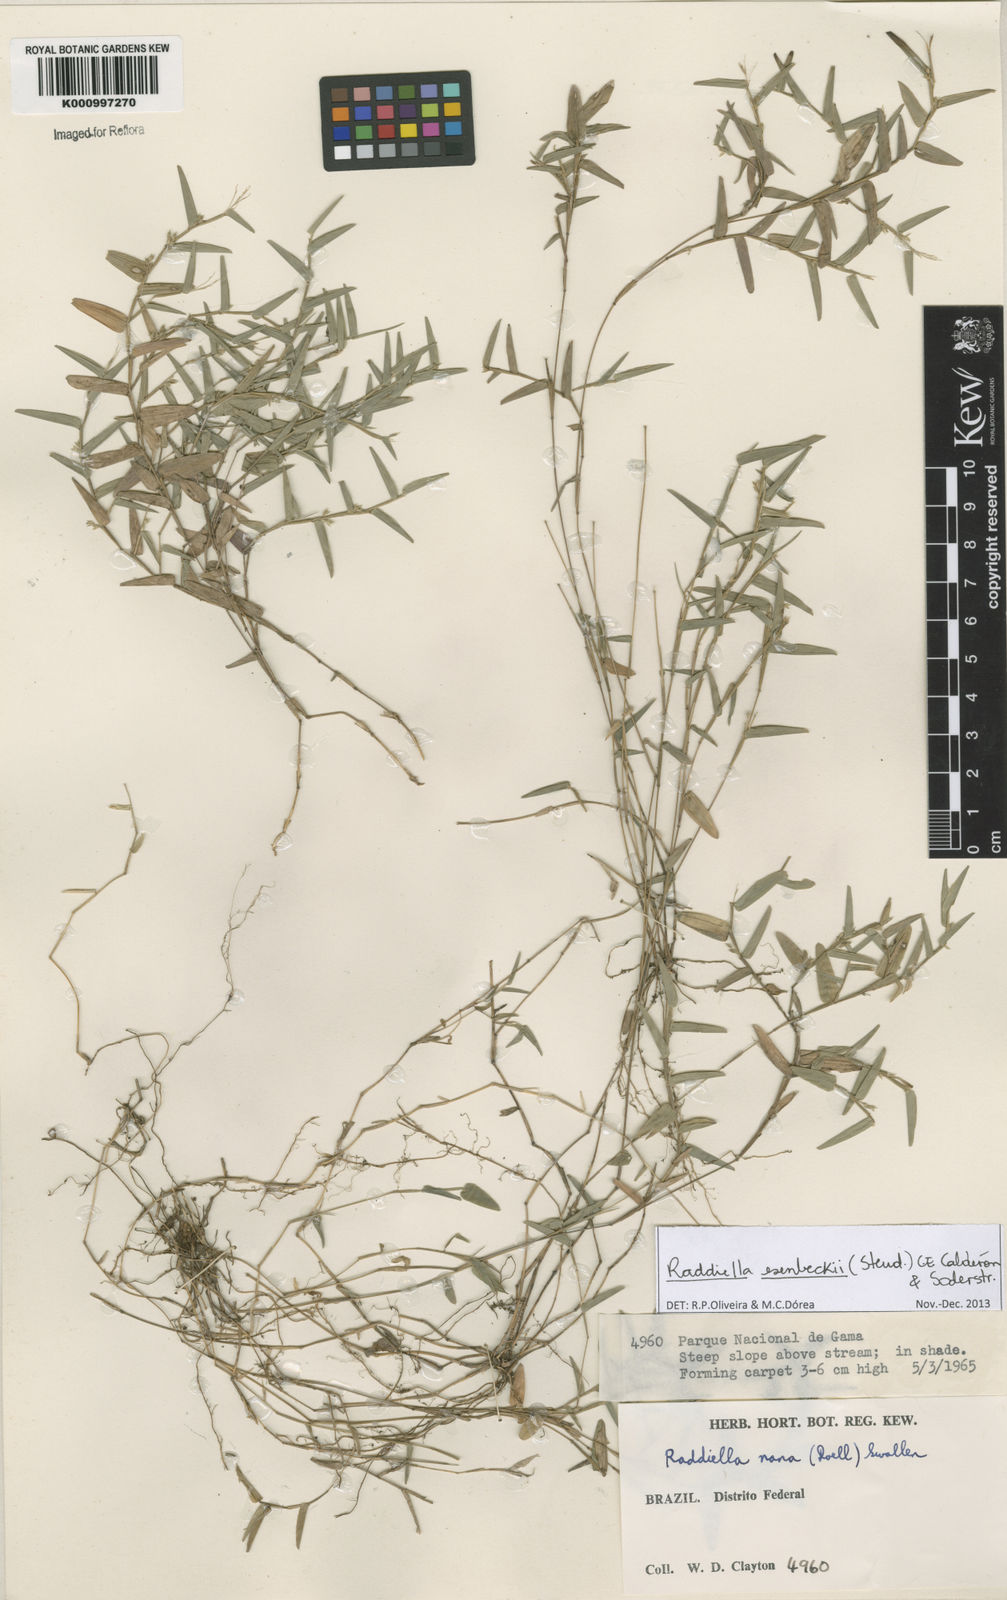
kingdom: Plantae
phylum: Tracheophyta
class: Liliopsida
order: Poales
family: Poaceae
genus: Raddiella
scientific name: Raddiella
